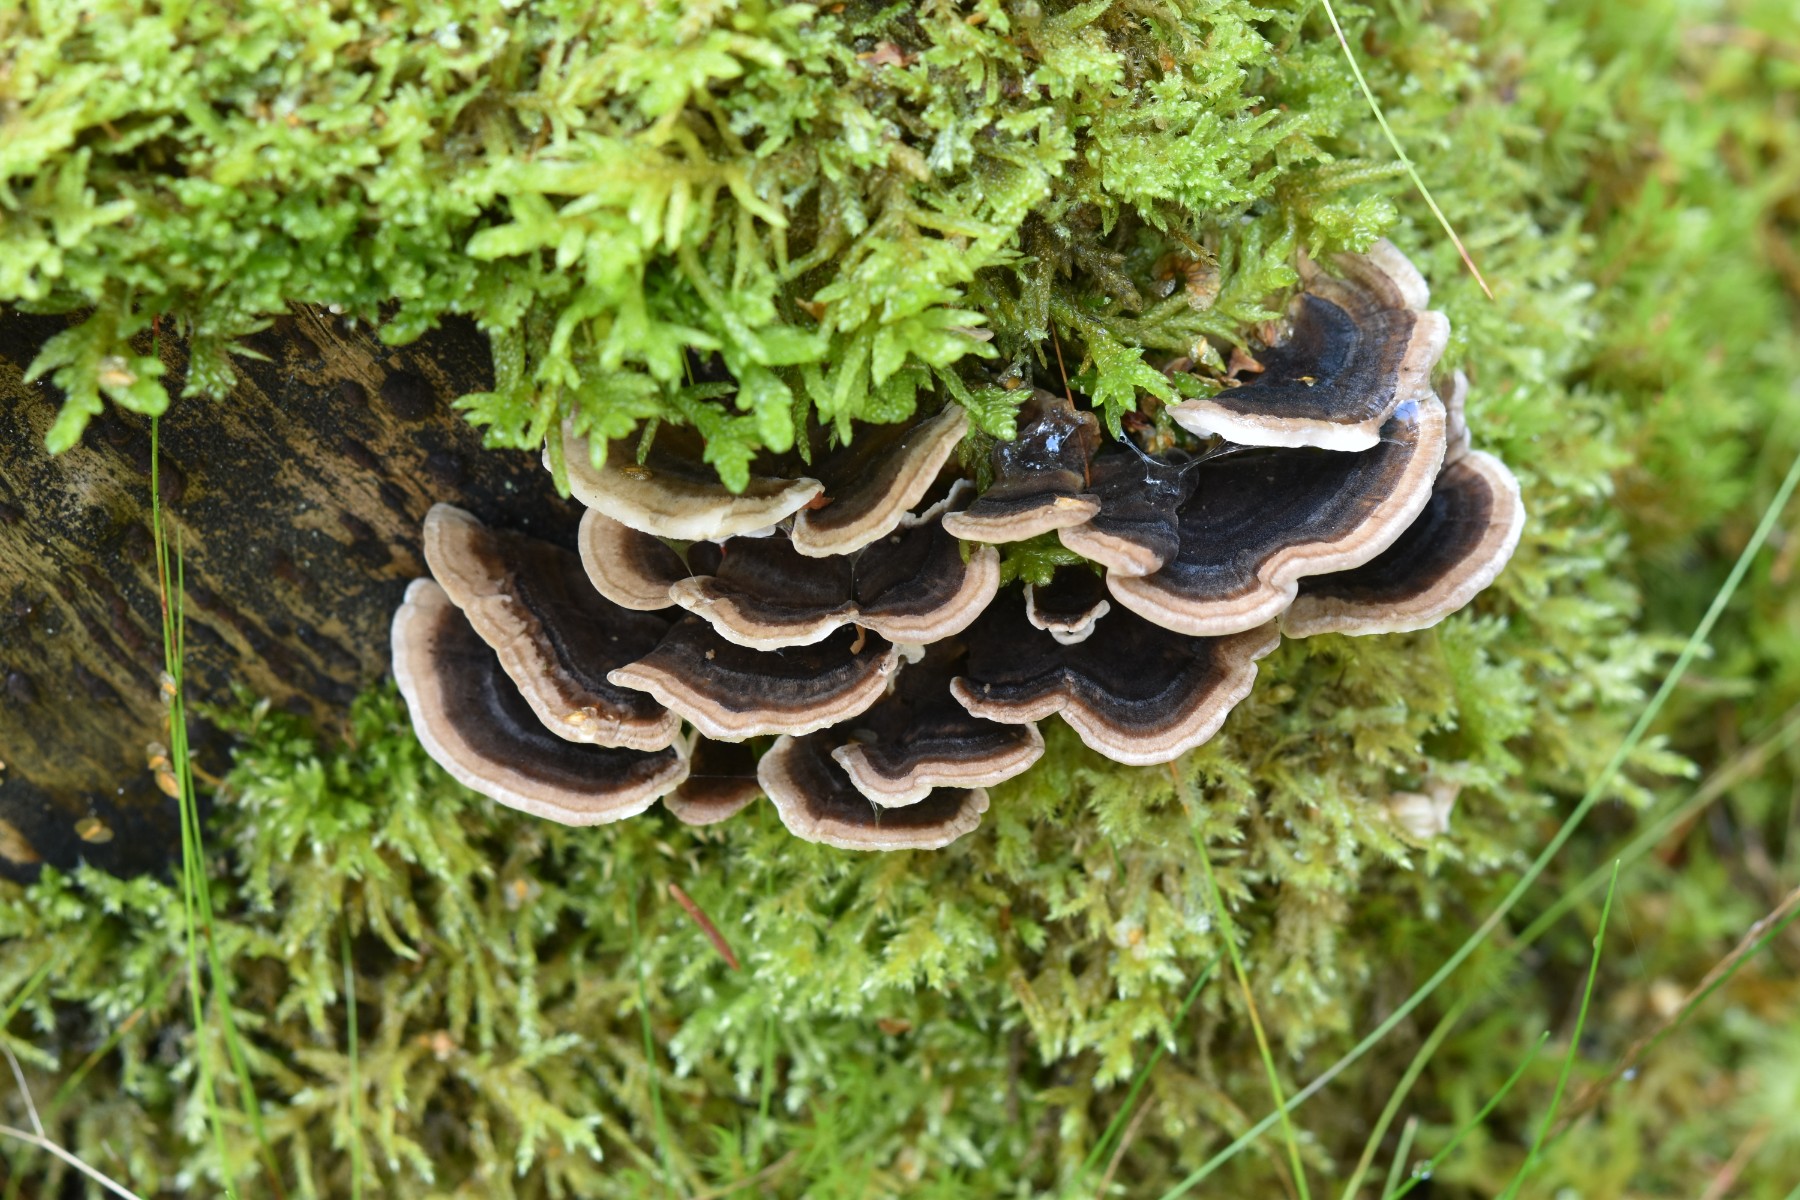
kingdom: Fungi
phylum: Basidiomycota
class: Agaricomycetes
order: Polyporales
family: Polyporaceae
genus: Trametes
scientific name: Trametes versicolor
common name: broget læderporesvamp
